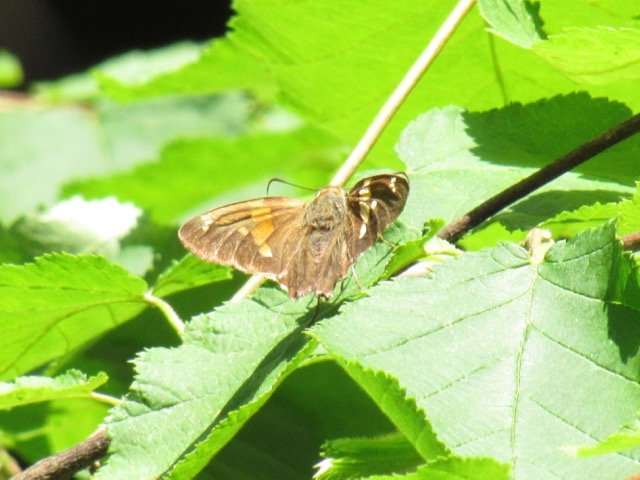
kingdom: Animalia
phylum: Arthropoda
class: Insecta
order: Lepidoptera
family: Hesperiidae
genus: Epargyreus
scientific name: Epargyreus clarus
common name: Silver-spotted Skipper
